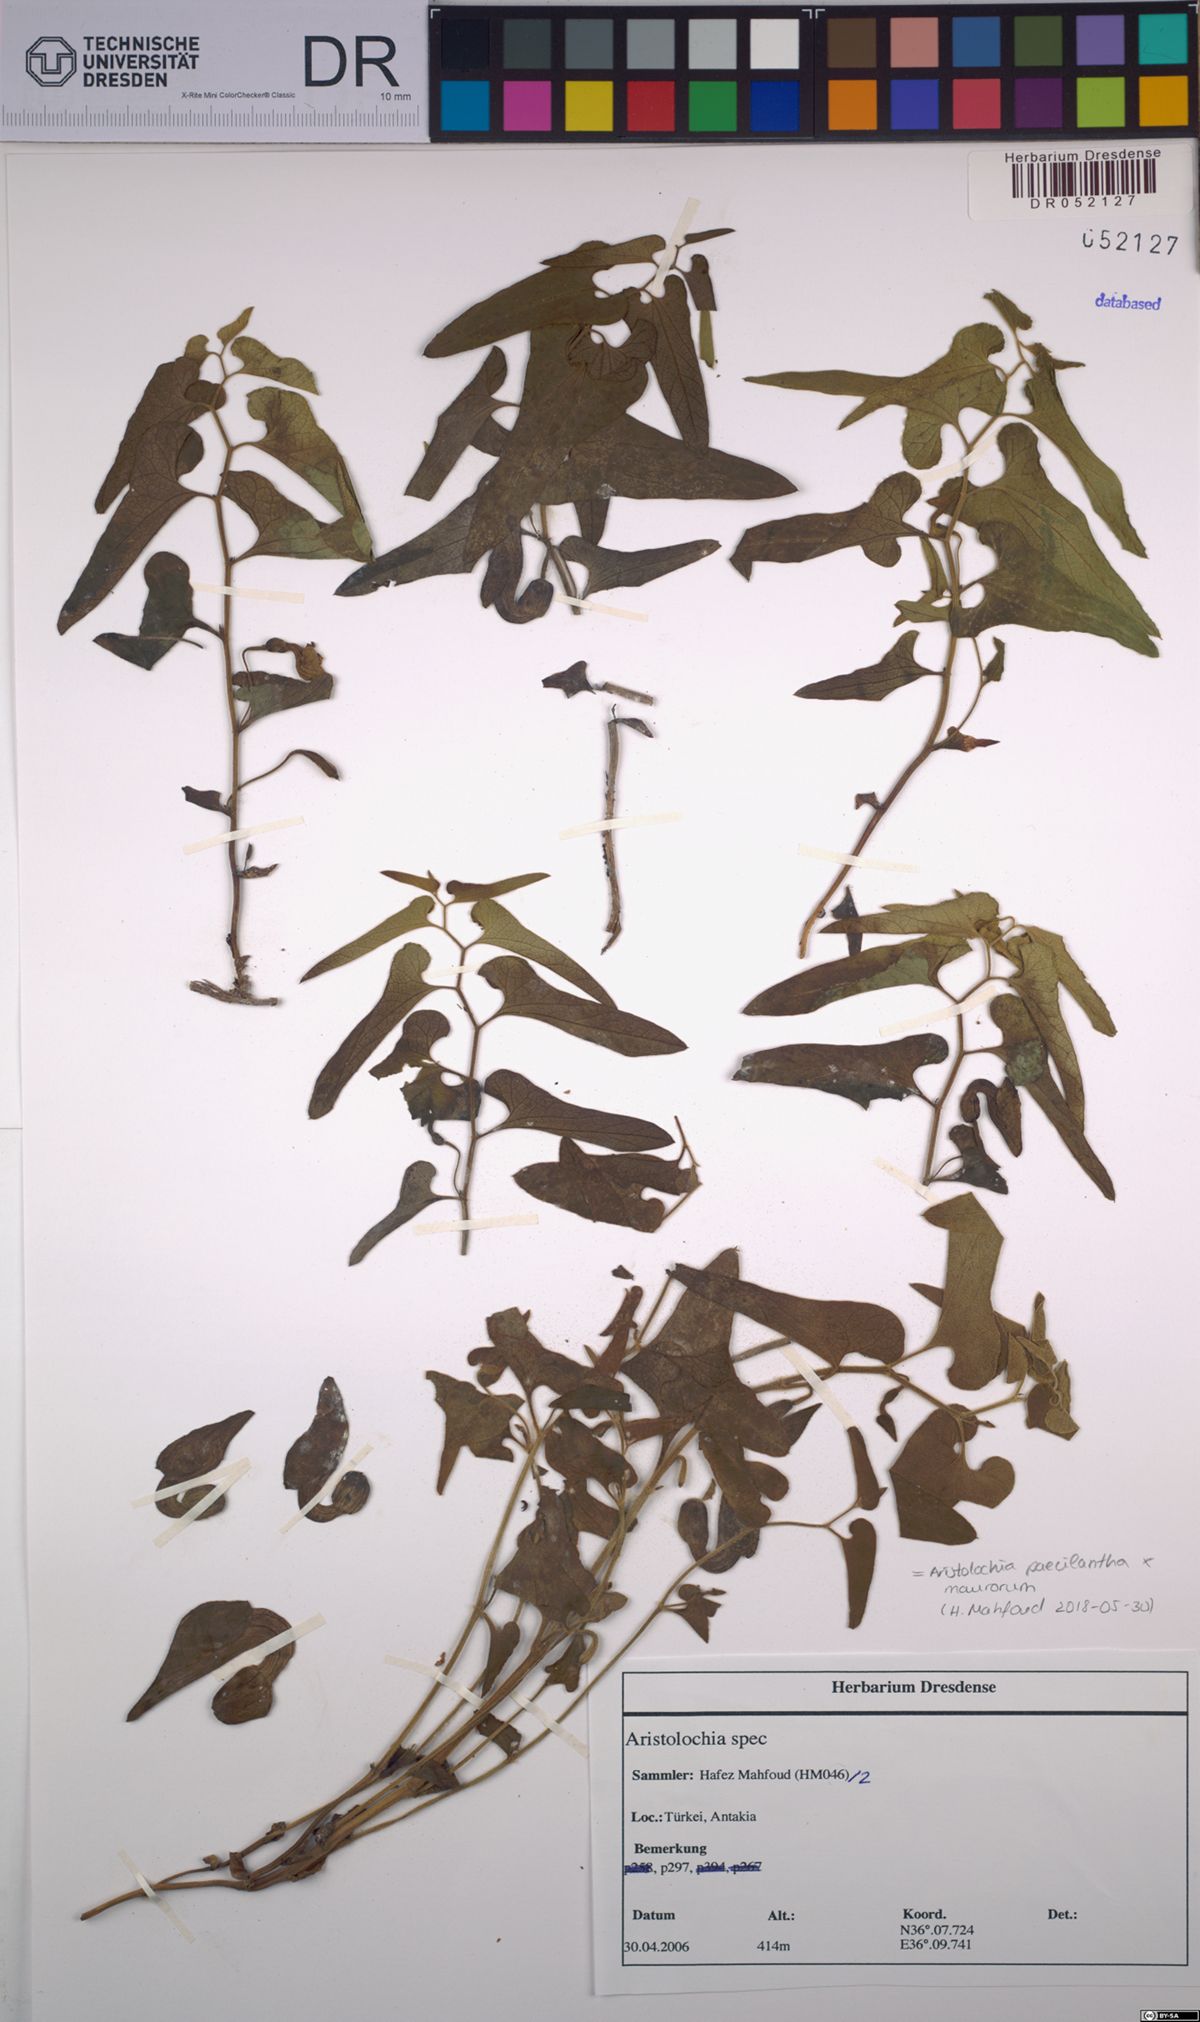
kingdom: Plantae
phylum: Tracheophyta
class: Magnoliopsida
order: Piperales
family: Aristolochiaceae
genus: Aristolochia
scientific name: Aristolochia paecilantha
